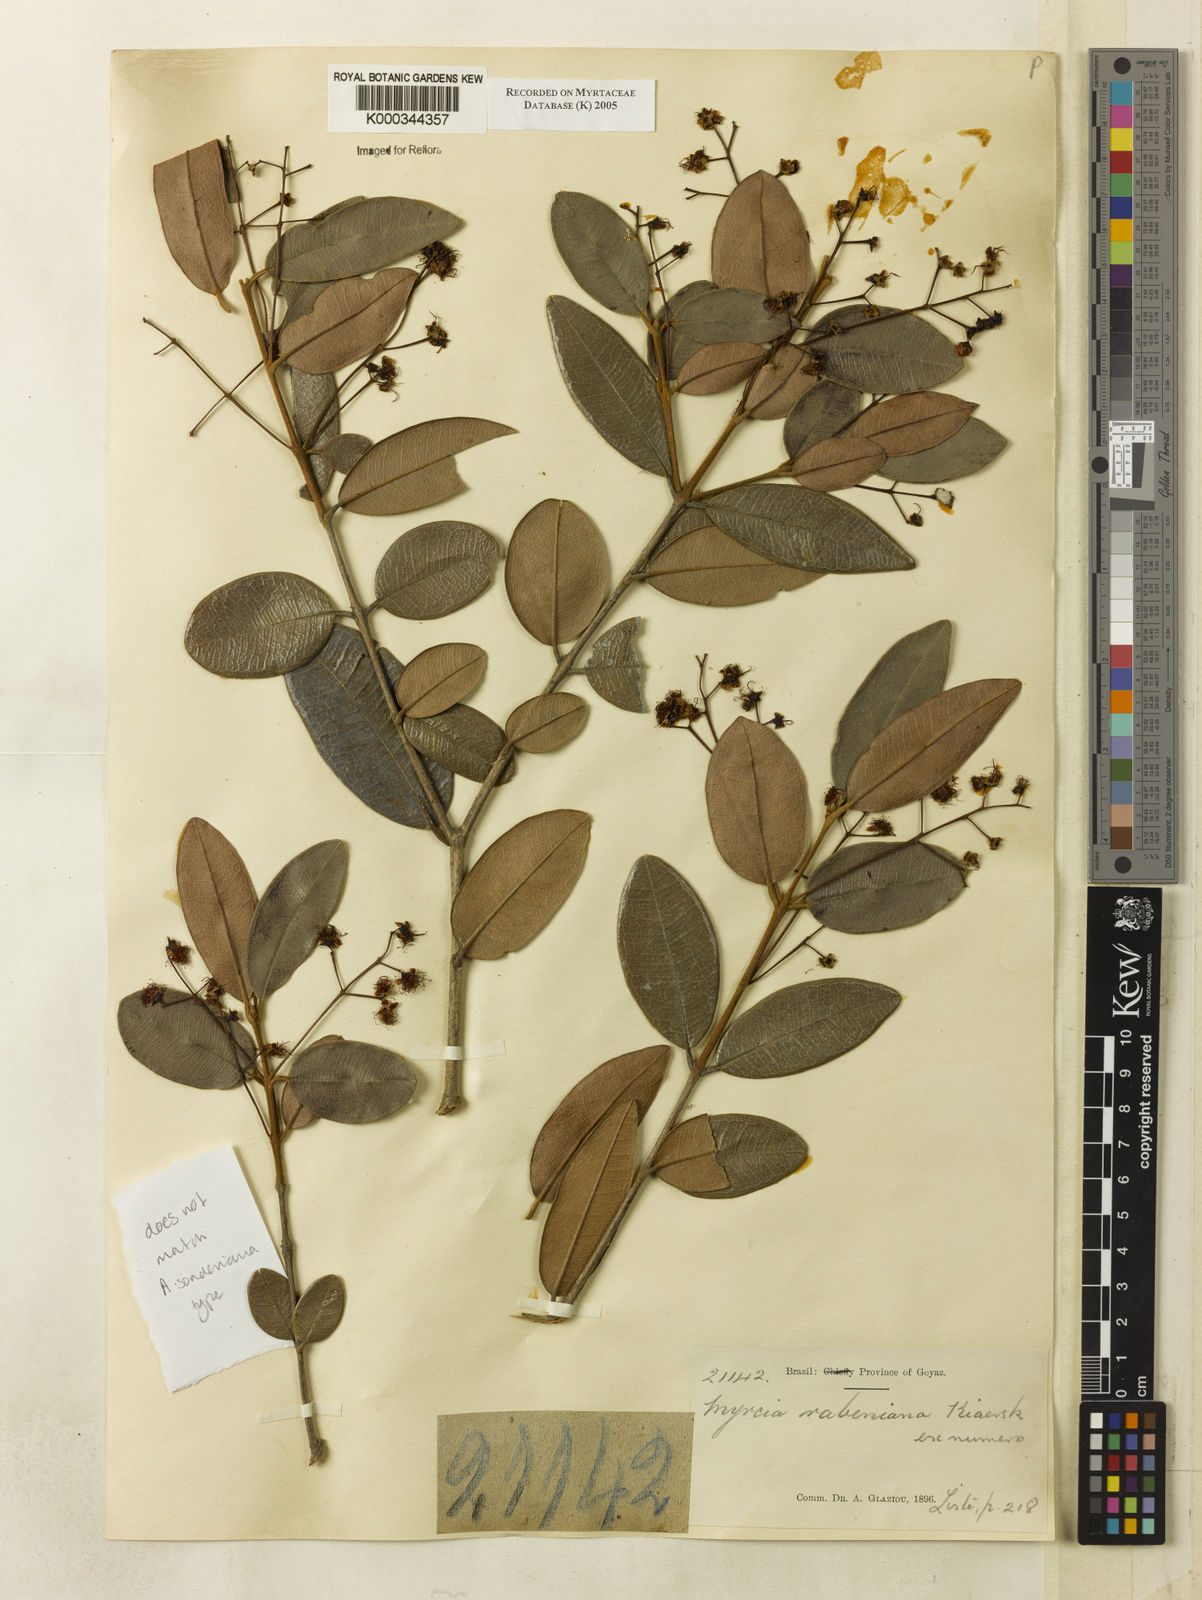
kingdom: Plantae
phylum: Tracheophyta
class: Magnoliopsida
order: Myrtales
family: Myrtaceae
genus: Myrcia
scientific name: Myrcia venulosa
